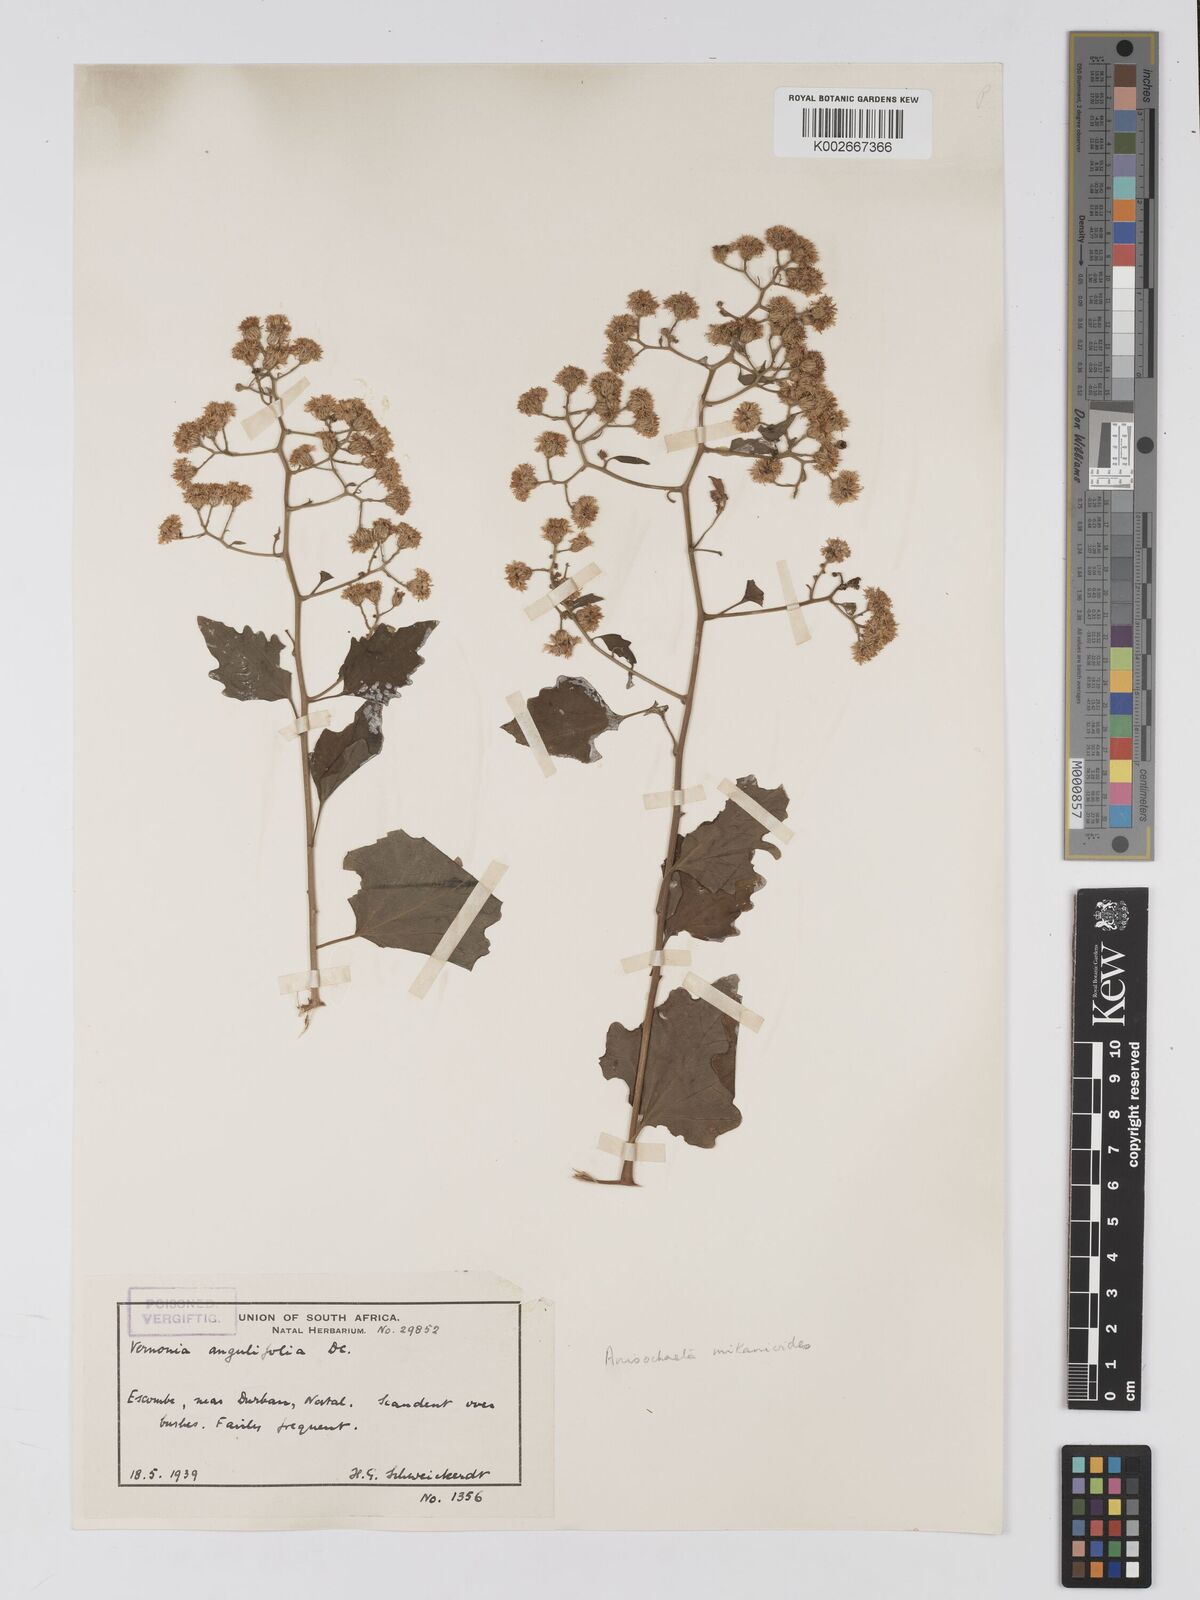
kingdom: Plantae
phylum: Tracheophyta
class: Magnoliopsida
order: Asterales
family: Asteraceae
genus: Anisochaeta
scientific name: Anisochaeta mikanioides
